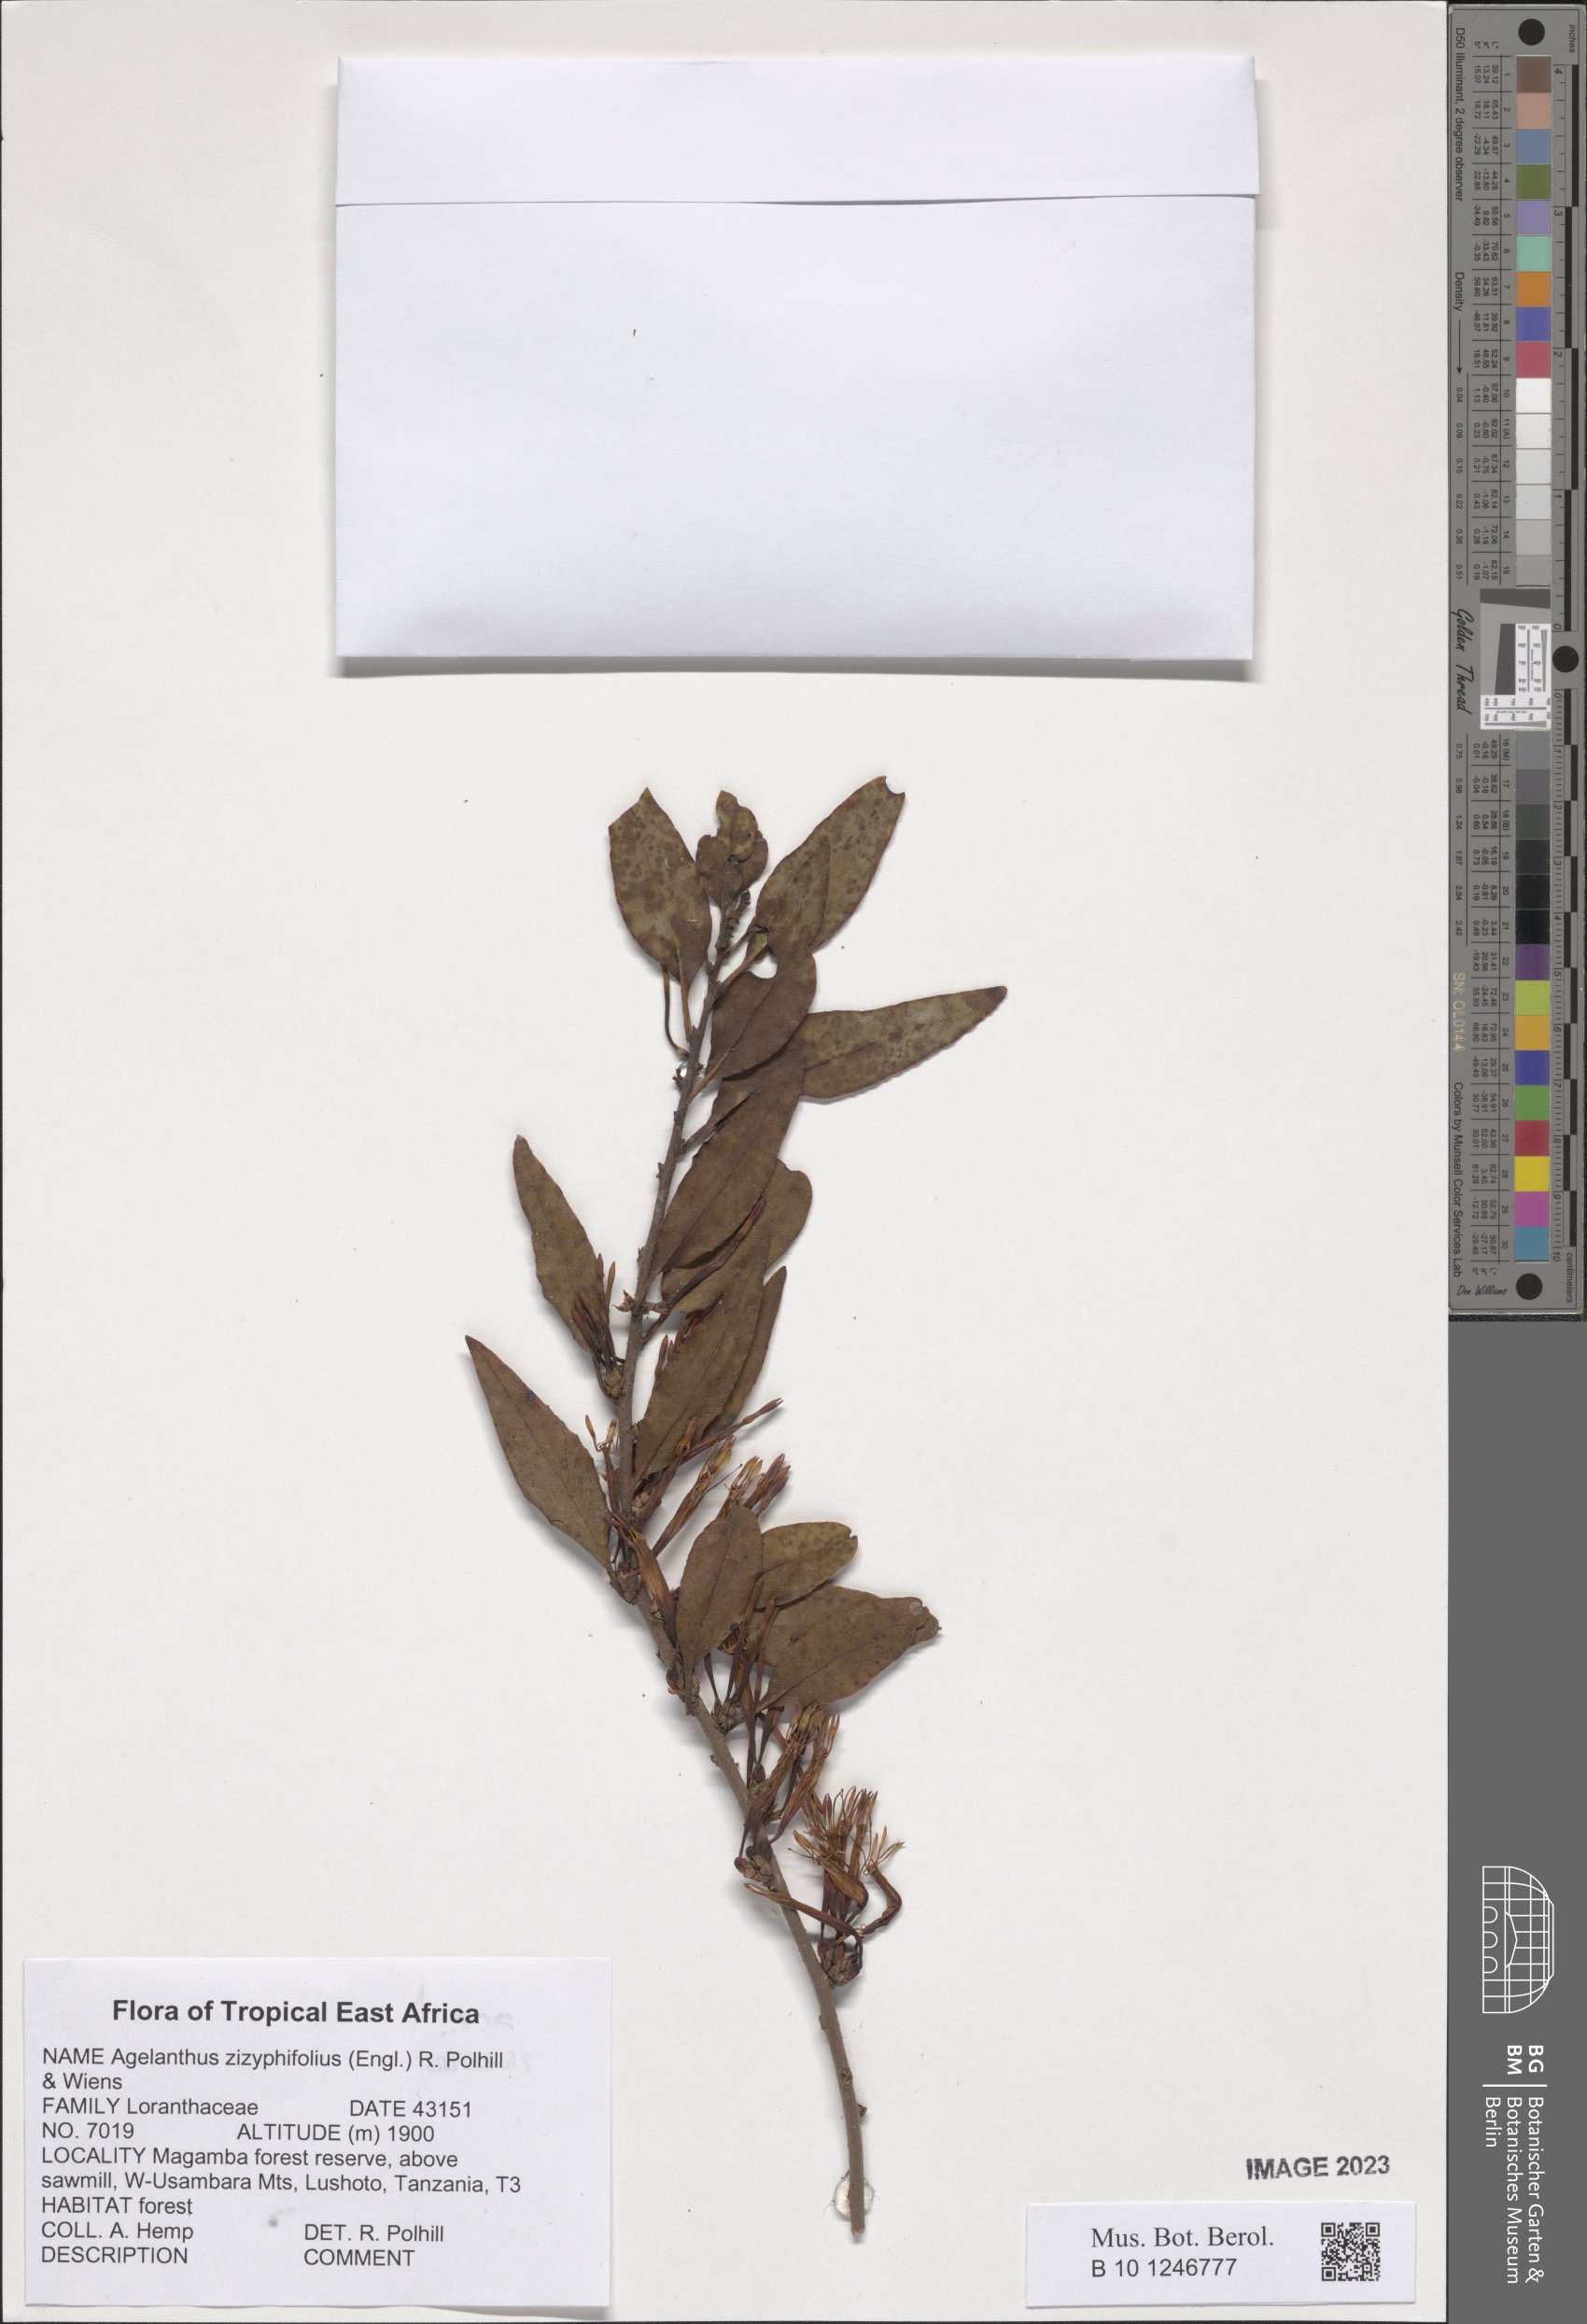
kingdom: Plantae
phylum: Tracheophyta
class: Magnoliopsida
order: Santalales
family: Loranthaceae
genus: Agelanthus
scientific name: Agelanthus zizyphifolius
